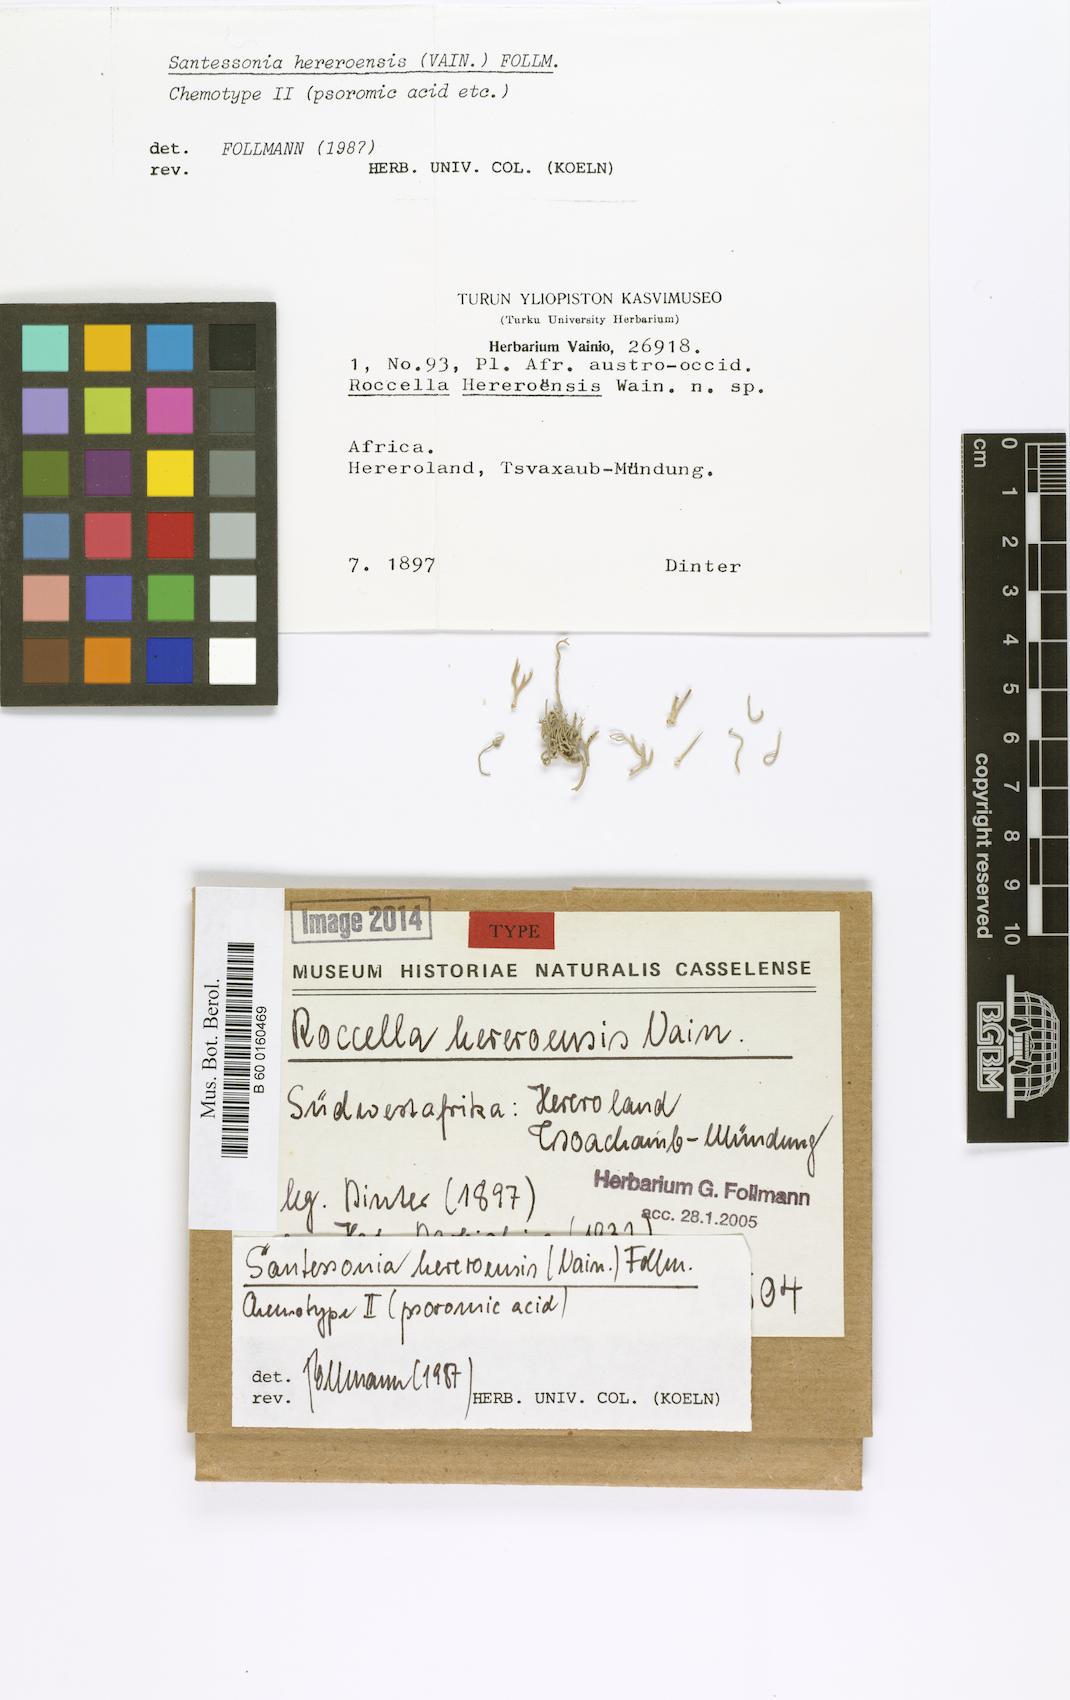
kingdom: Fungi
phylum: Ascomycota
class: Arthoniomycetes
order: Arthoniales
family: Roccellaceae
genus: Roccella
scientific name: Roccella
